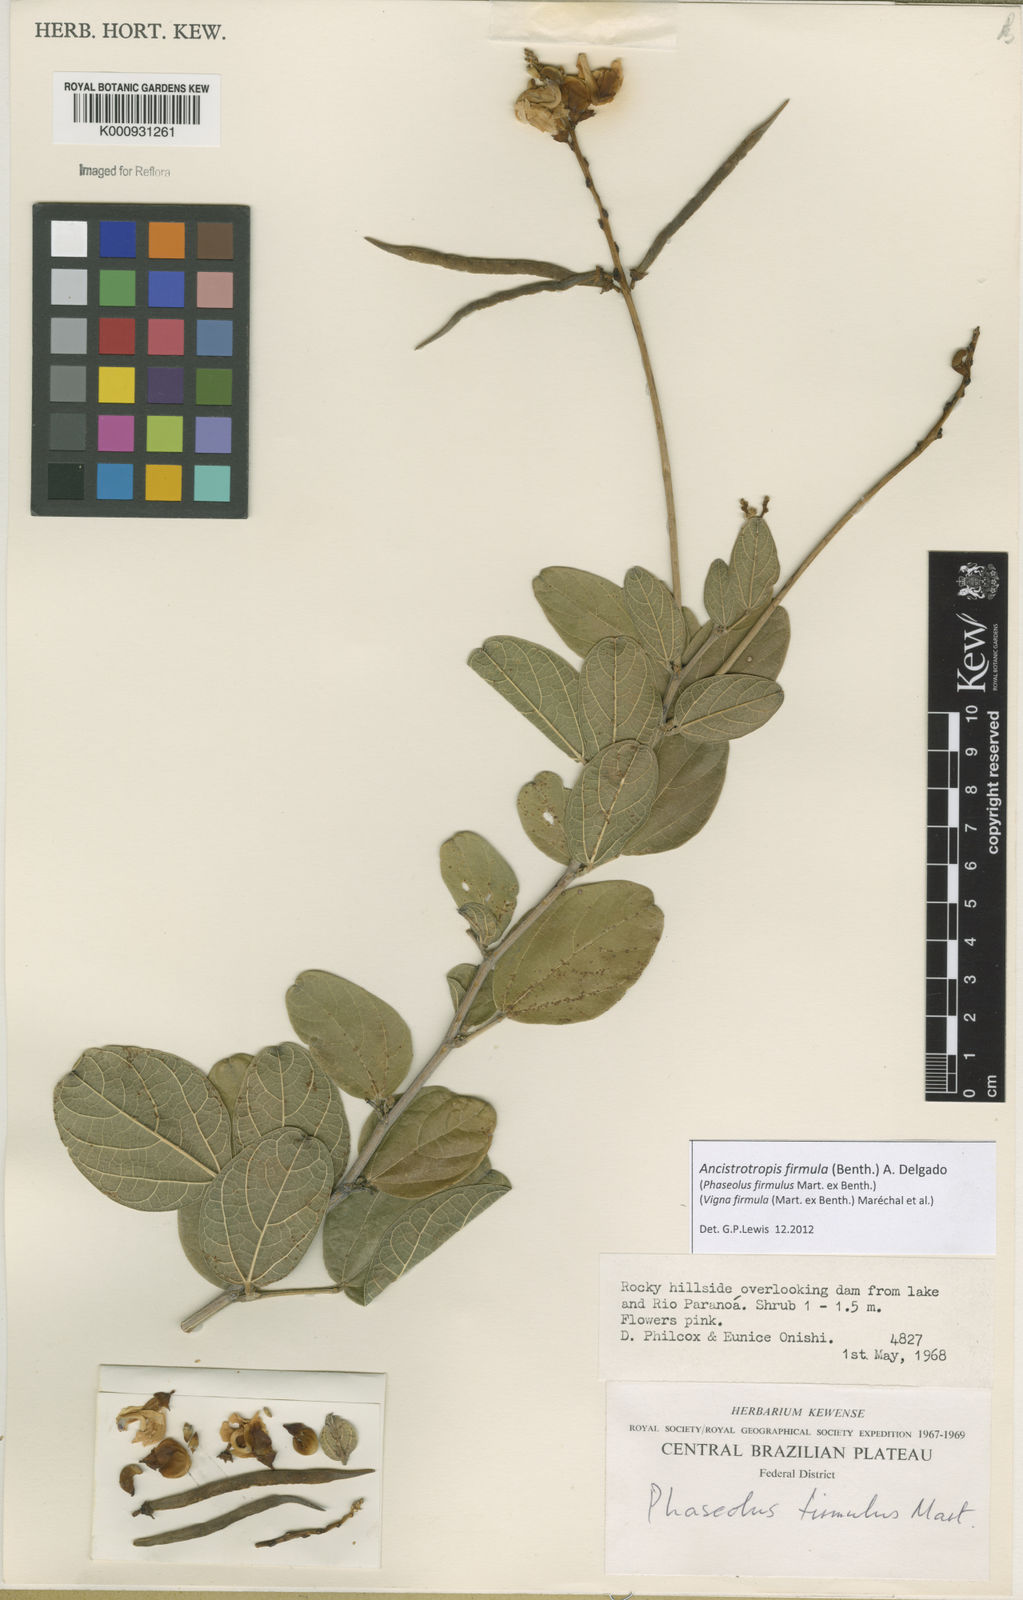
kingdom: Plantae
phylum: Tracheophyta
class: Magnoliopsida
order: Fabales
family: Fabaceae
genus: Ancistrotropis
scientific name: Ancistrotropis firmula
